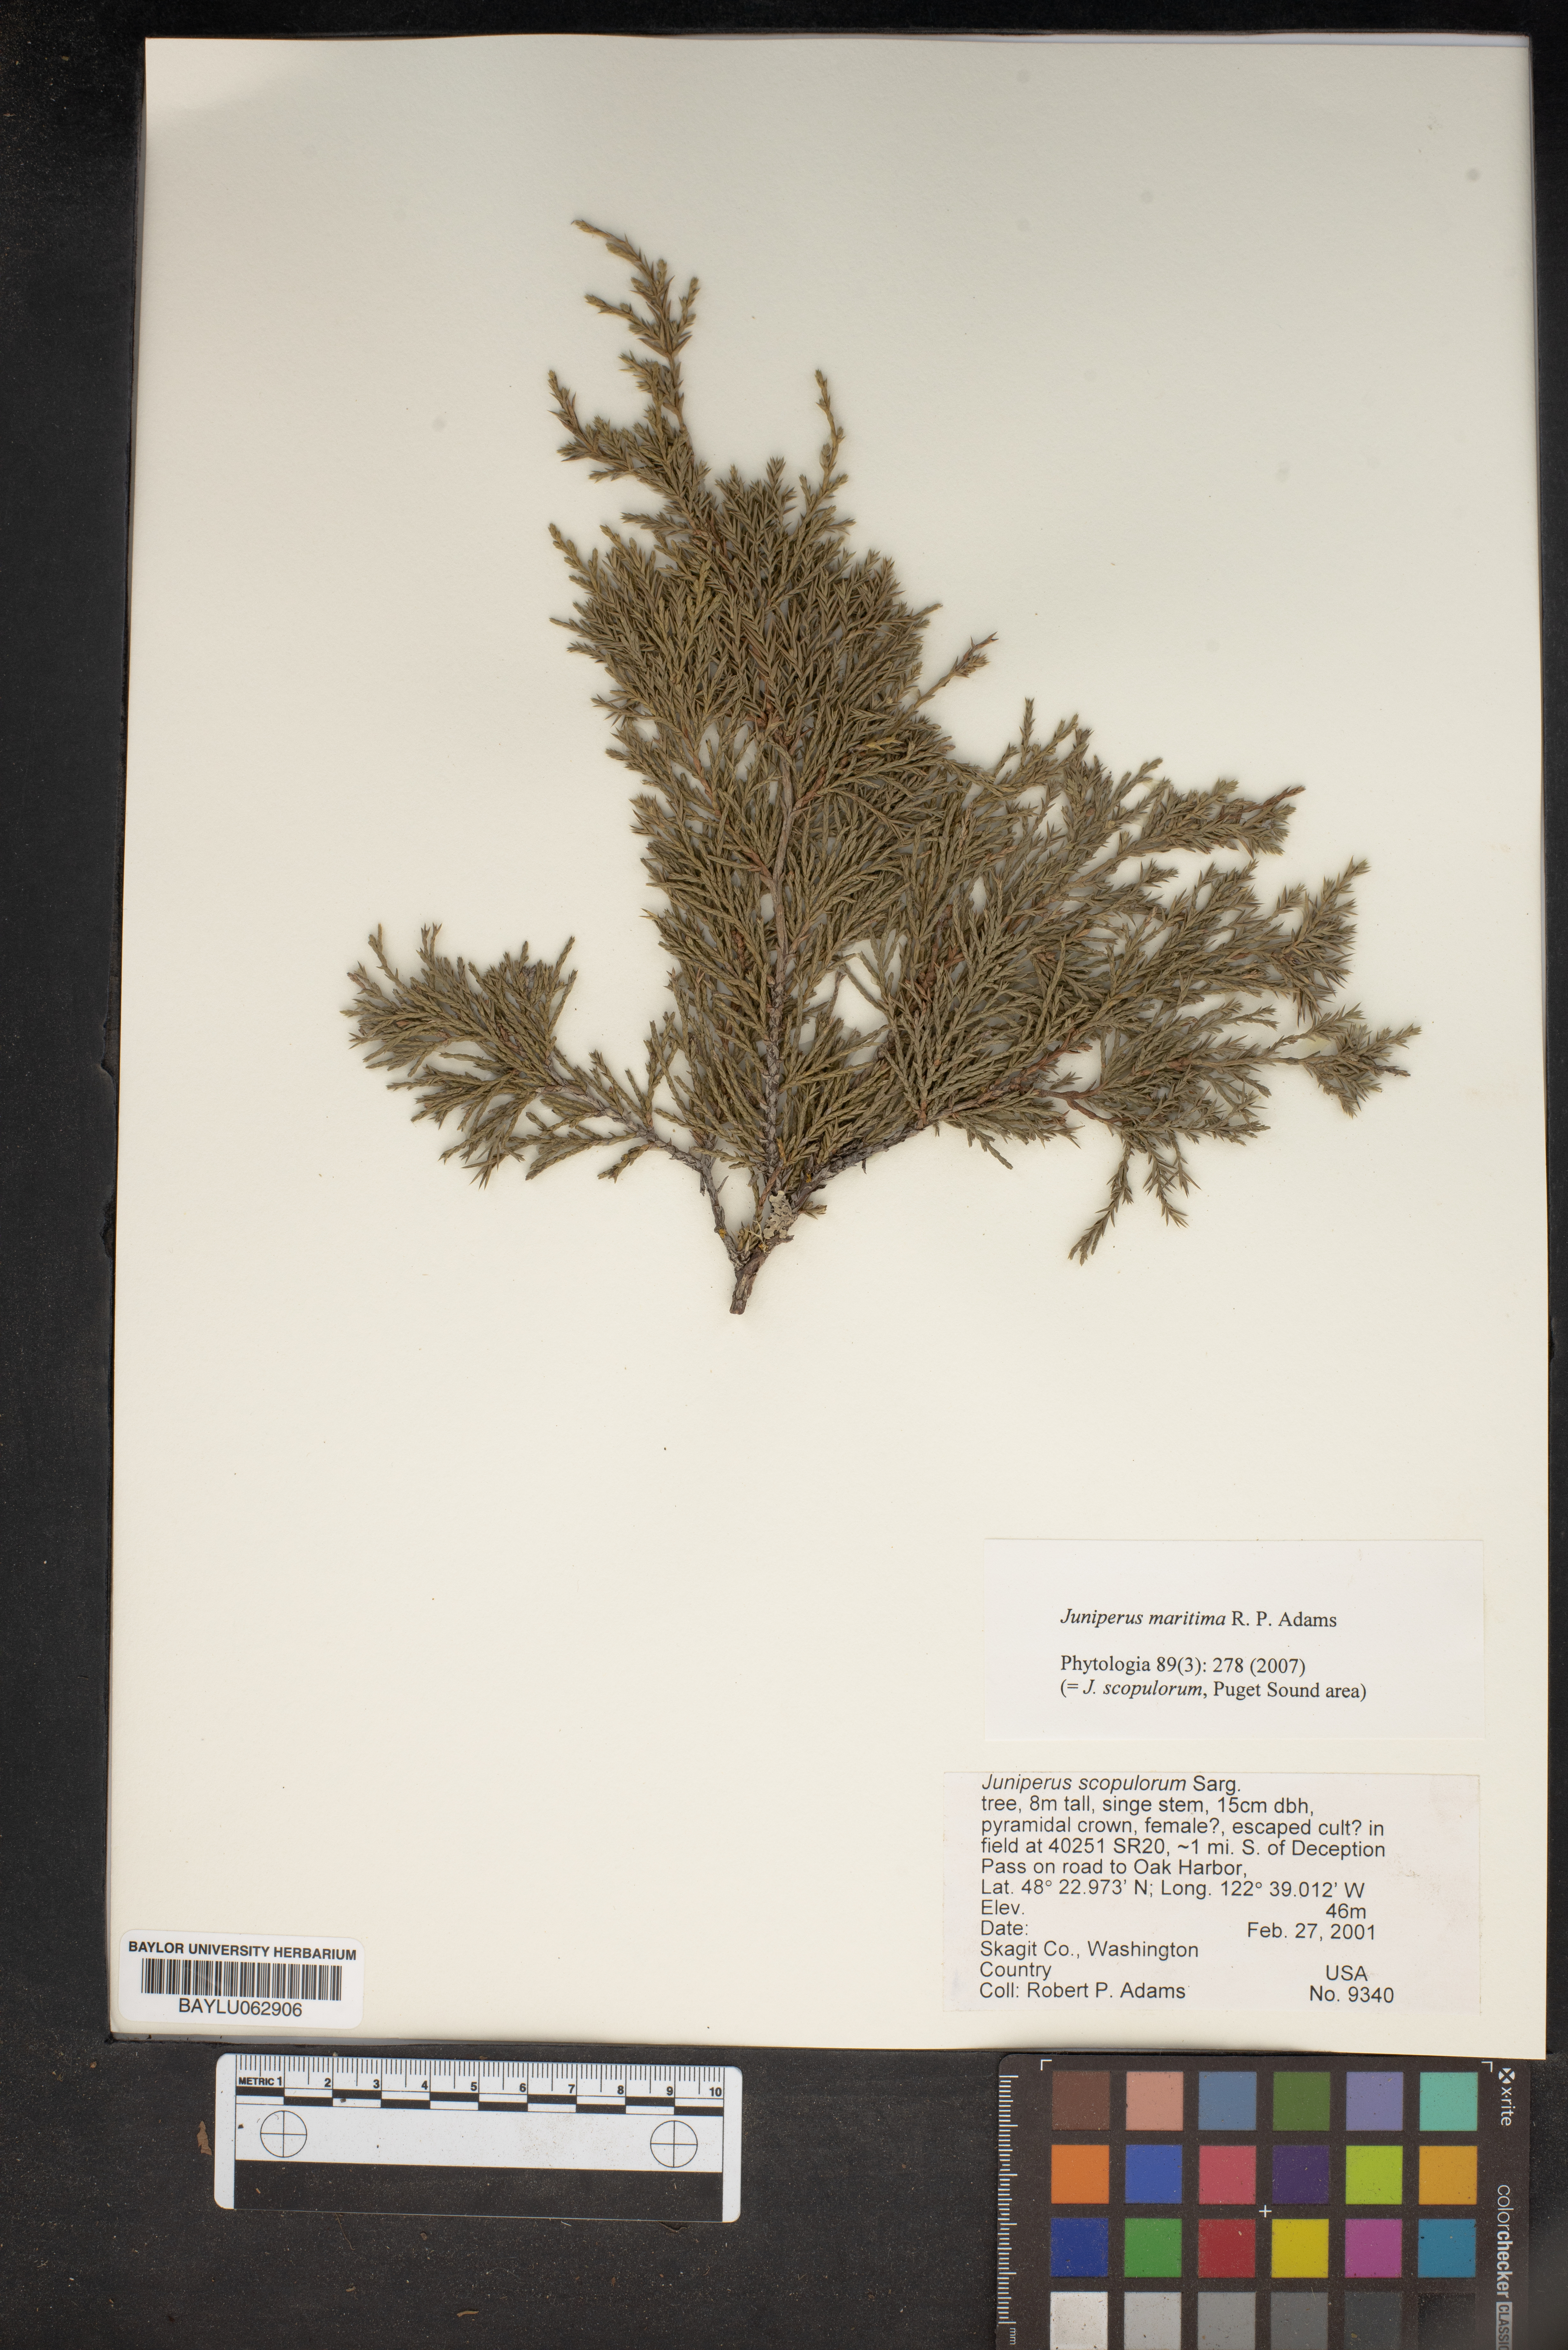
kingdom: Plantae
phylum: Tracheophyta
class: Pinopsida
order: Pinales
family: Cupressaceae
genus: Juniperus
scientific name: Juniperus scopulorum
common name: Rocky mountain juniper
